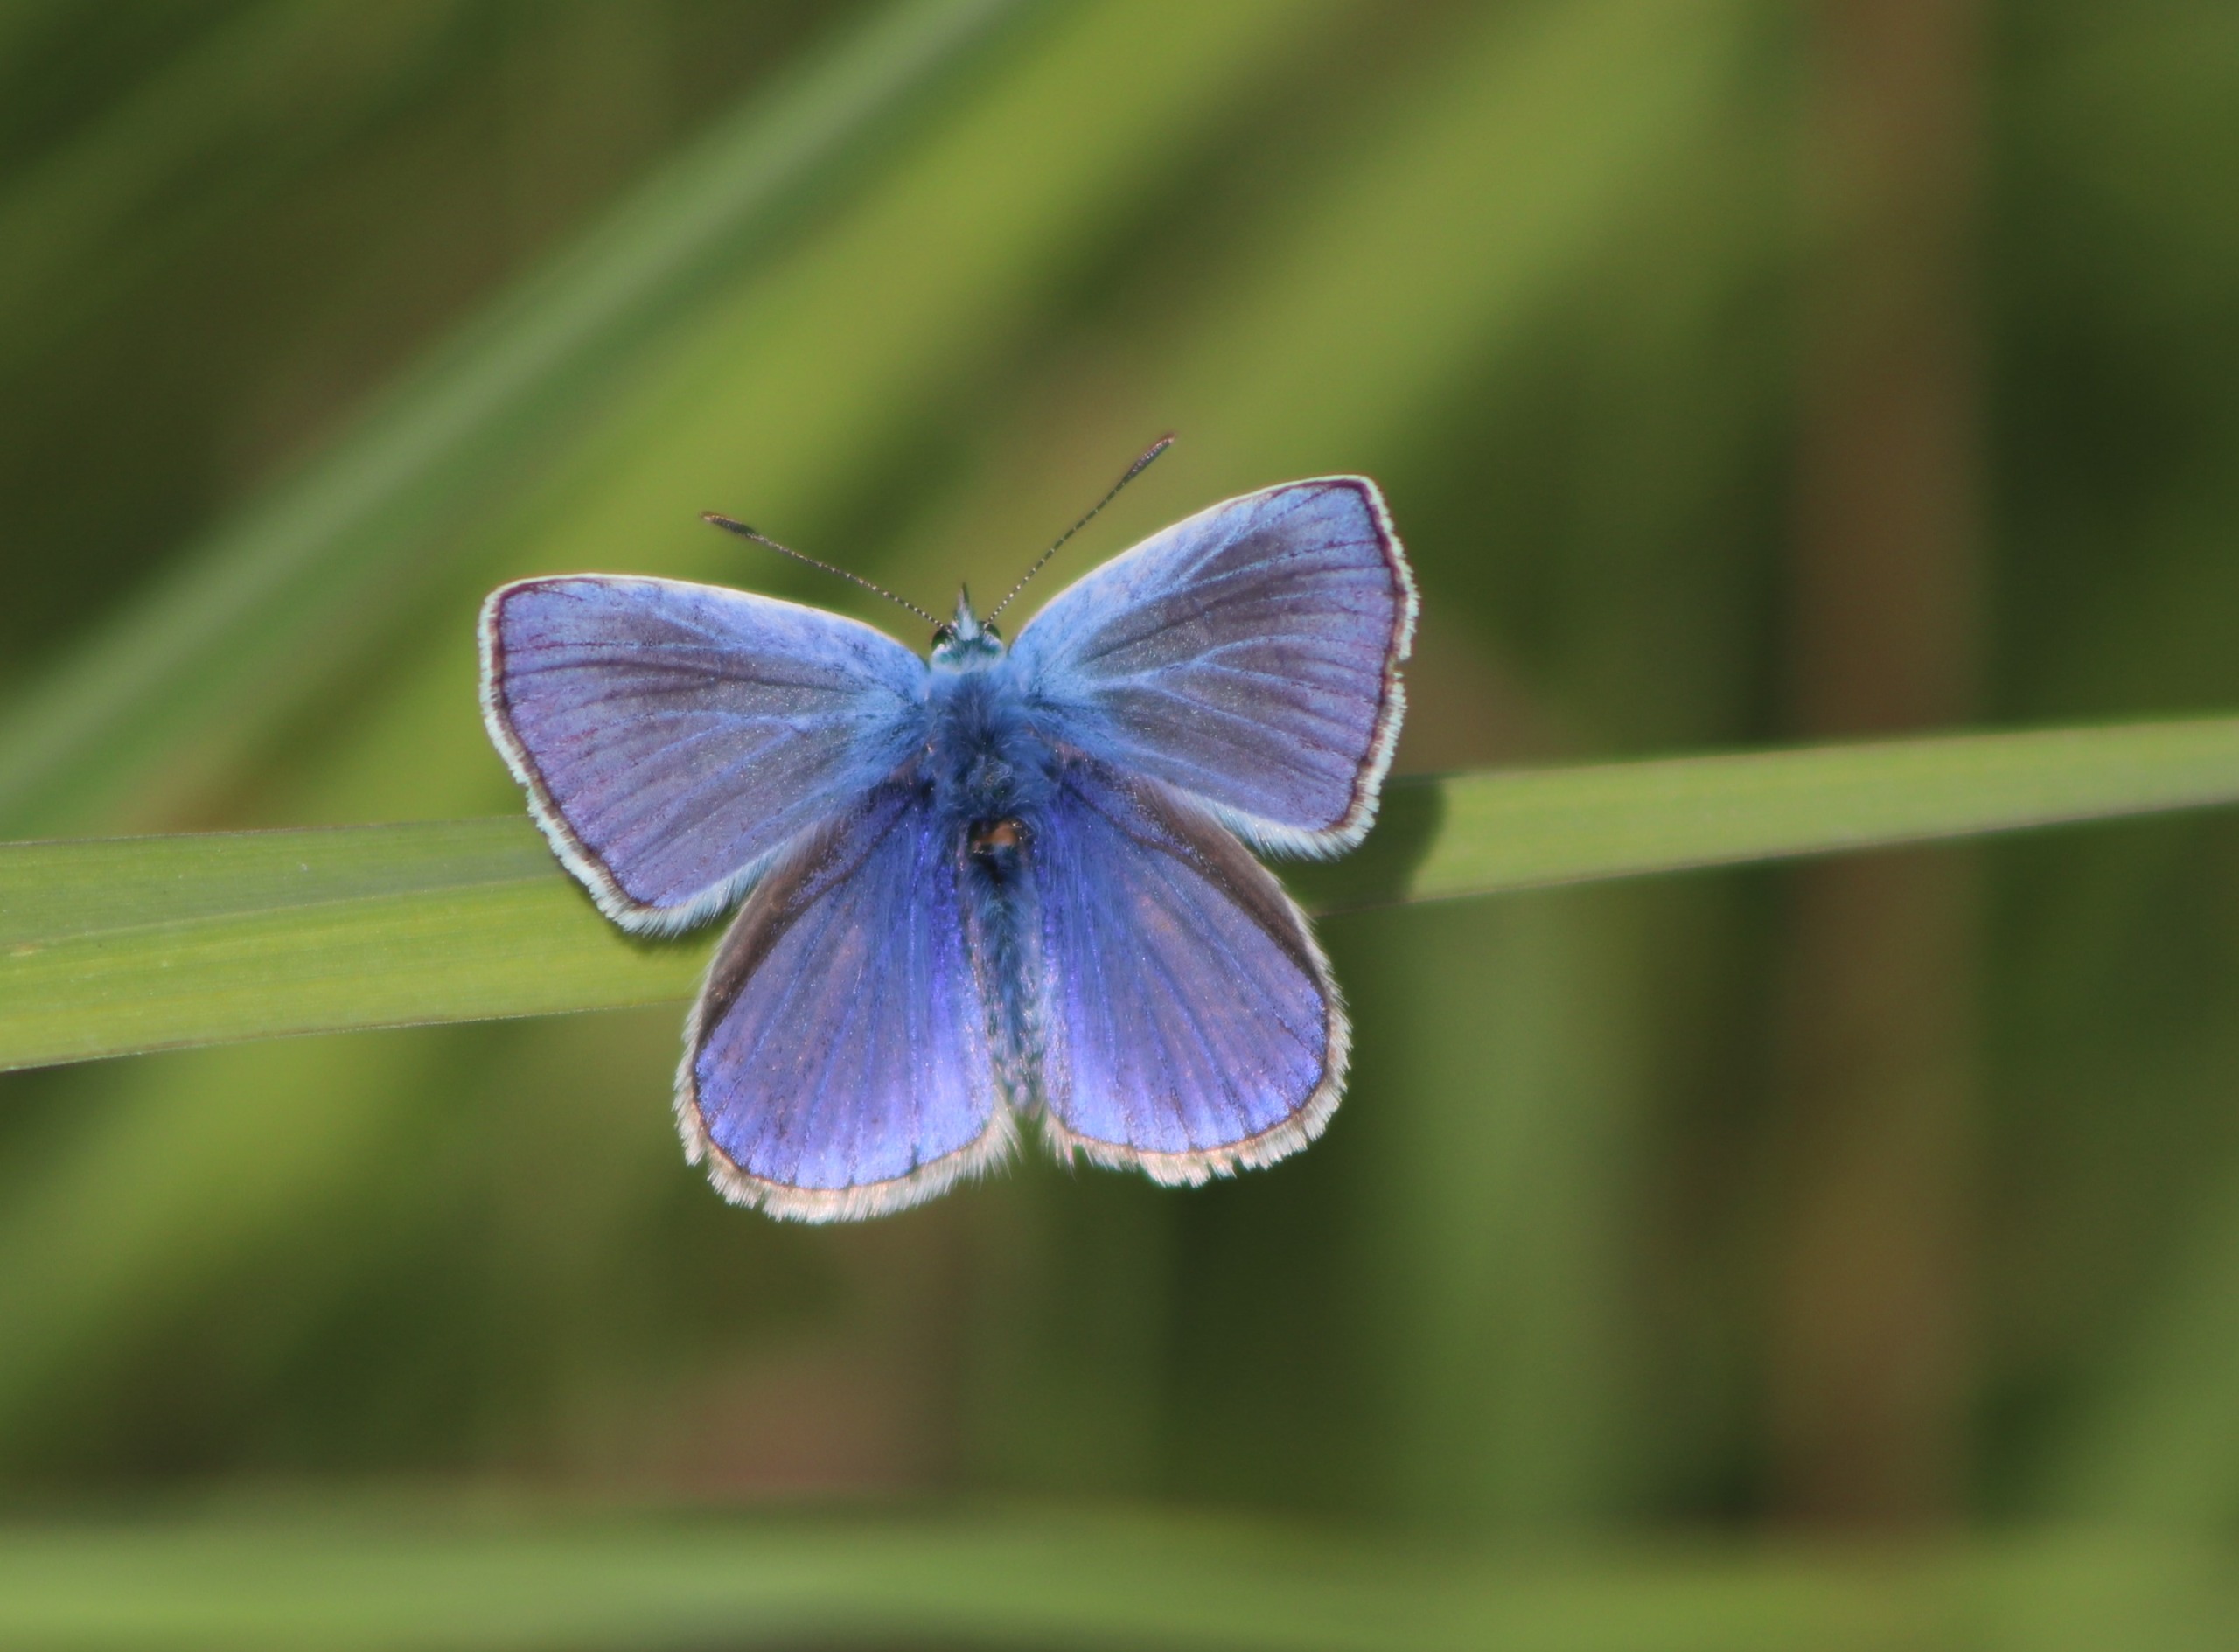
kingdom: Animalia
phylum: Arthropoda
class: Insecta
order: Lepidoptera
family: Lycaenidae
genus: Polyommatus
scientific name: Polyommatus icarus
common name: Almindelig blåfugl
